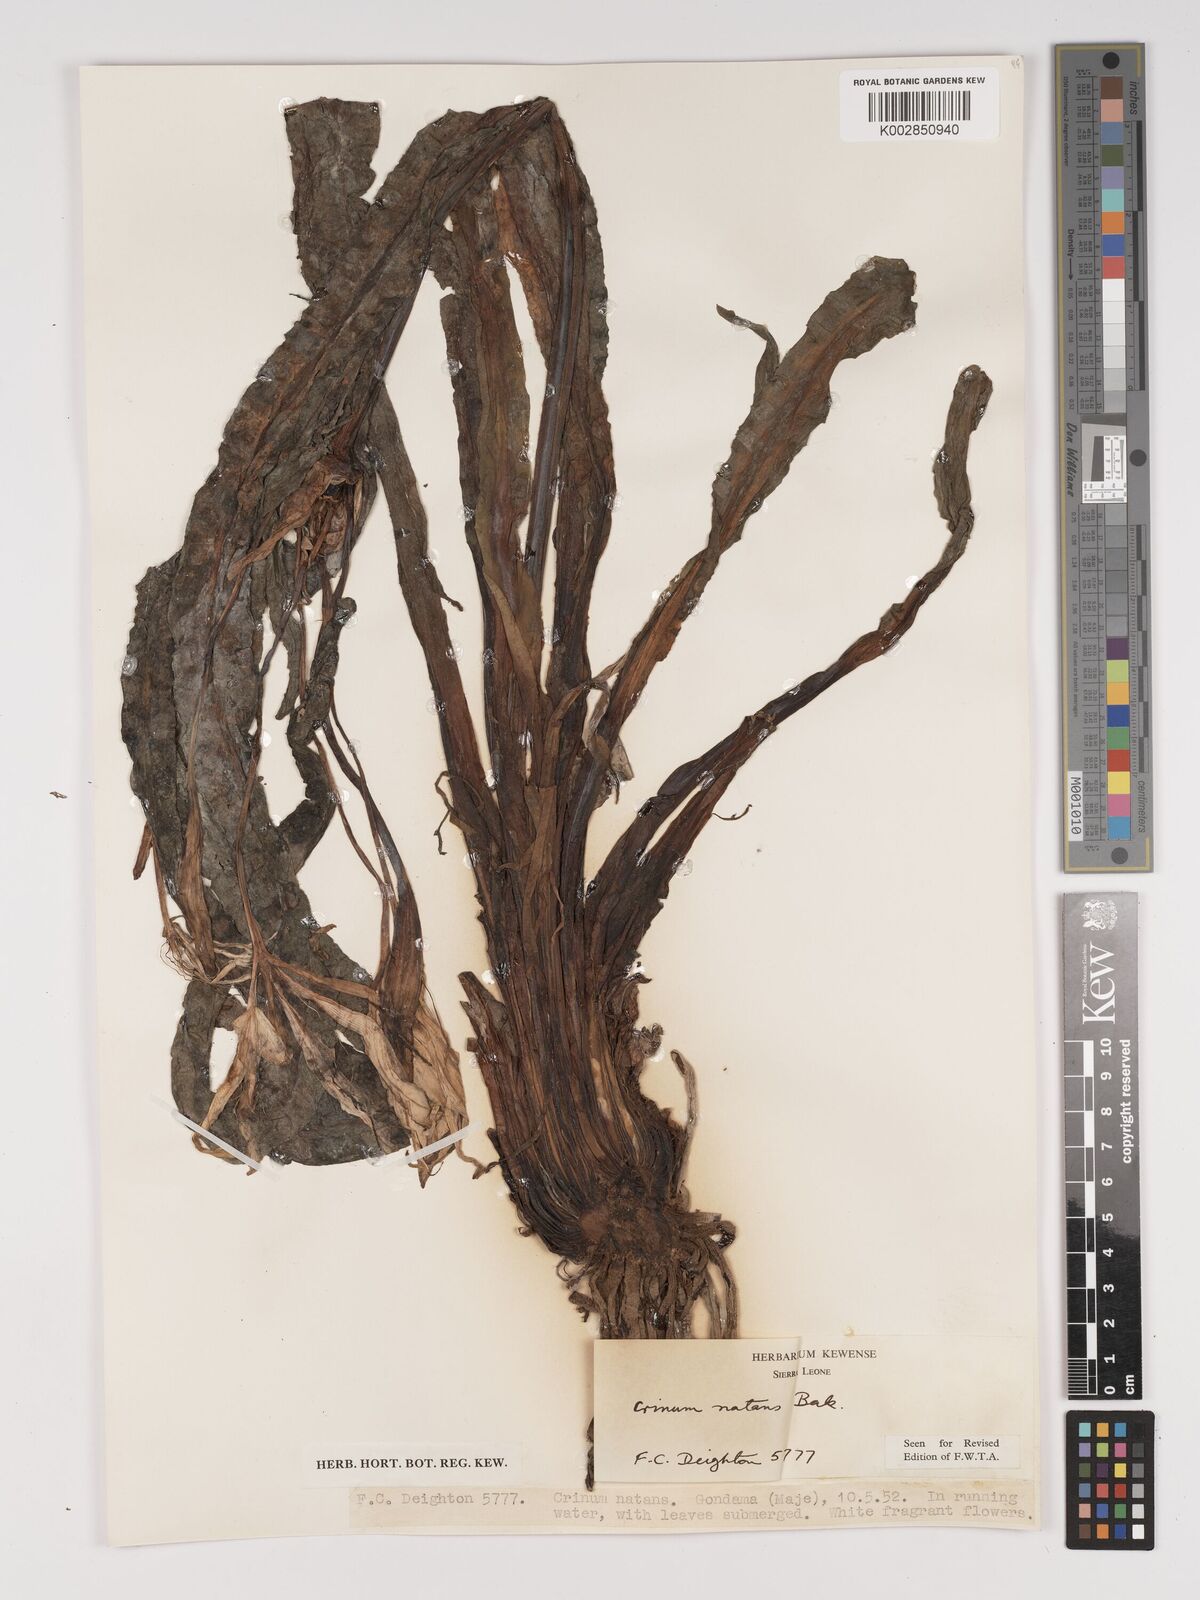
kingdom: Plantae
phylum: Tracheophyta
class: Liliopsida
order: Asparagales
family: Amaryllidaceae
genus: Crinum
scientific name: Crinum moorei
